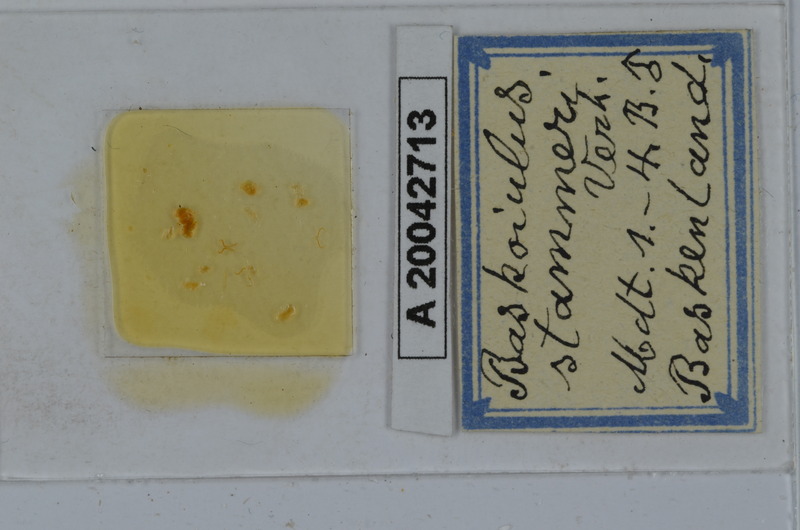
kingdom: Animalia
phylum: Arthropoda
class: Diplopoda
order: Julida
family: Julidae
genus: Mesoiulus
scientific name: Mesoiulus stammeri
